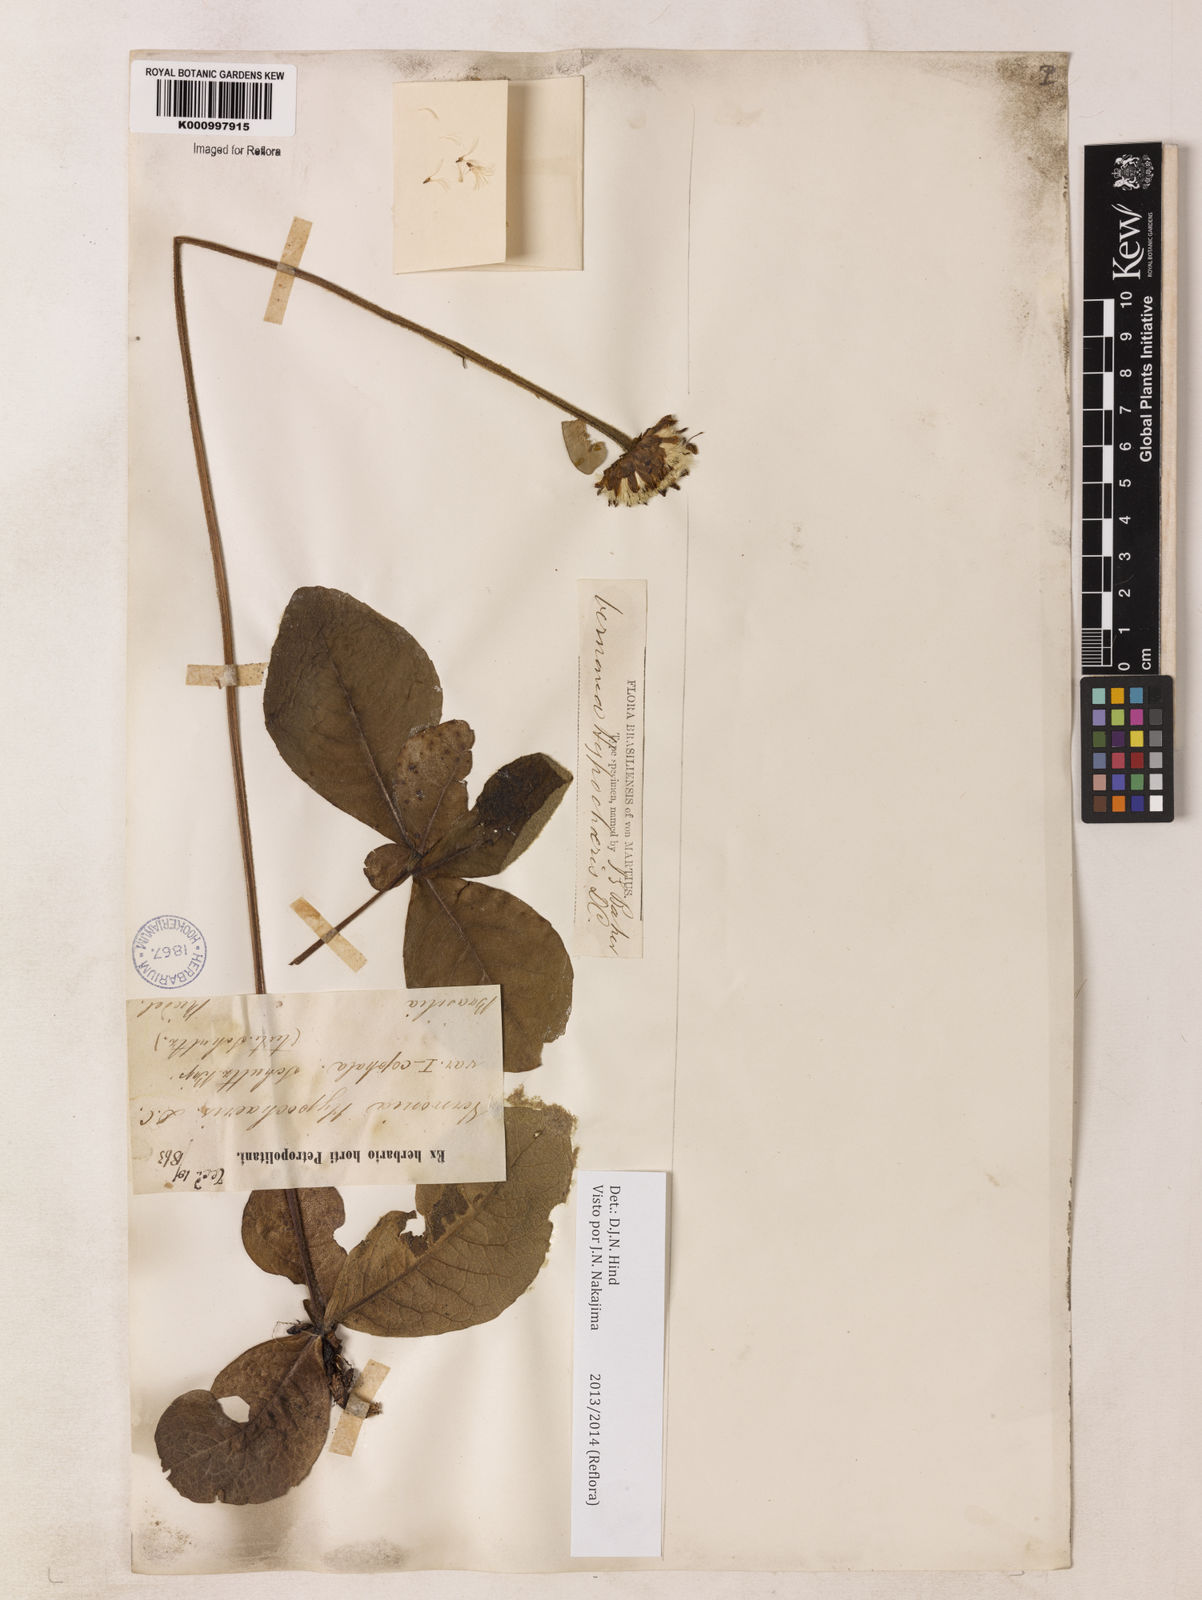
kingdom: Plantae
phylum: Tracheophyta
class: Magnoliopsida
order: Asterales
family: Asteraceae
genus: Lessingianthus
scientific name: Lessingianthus hypochaeris
